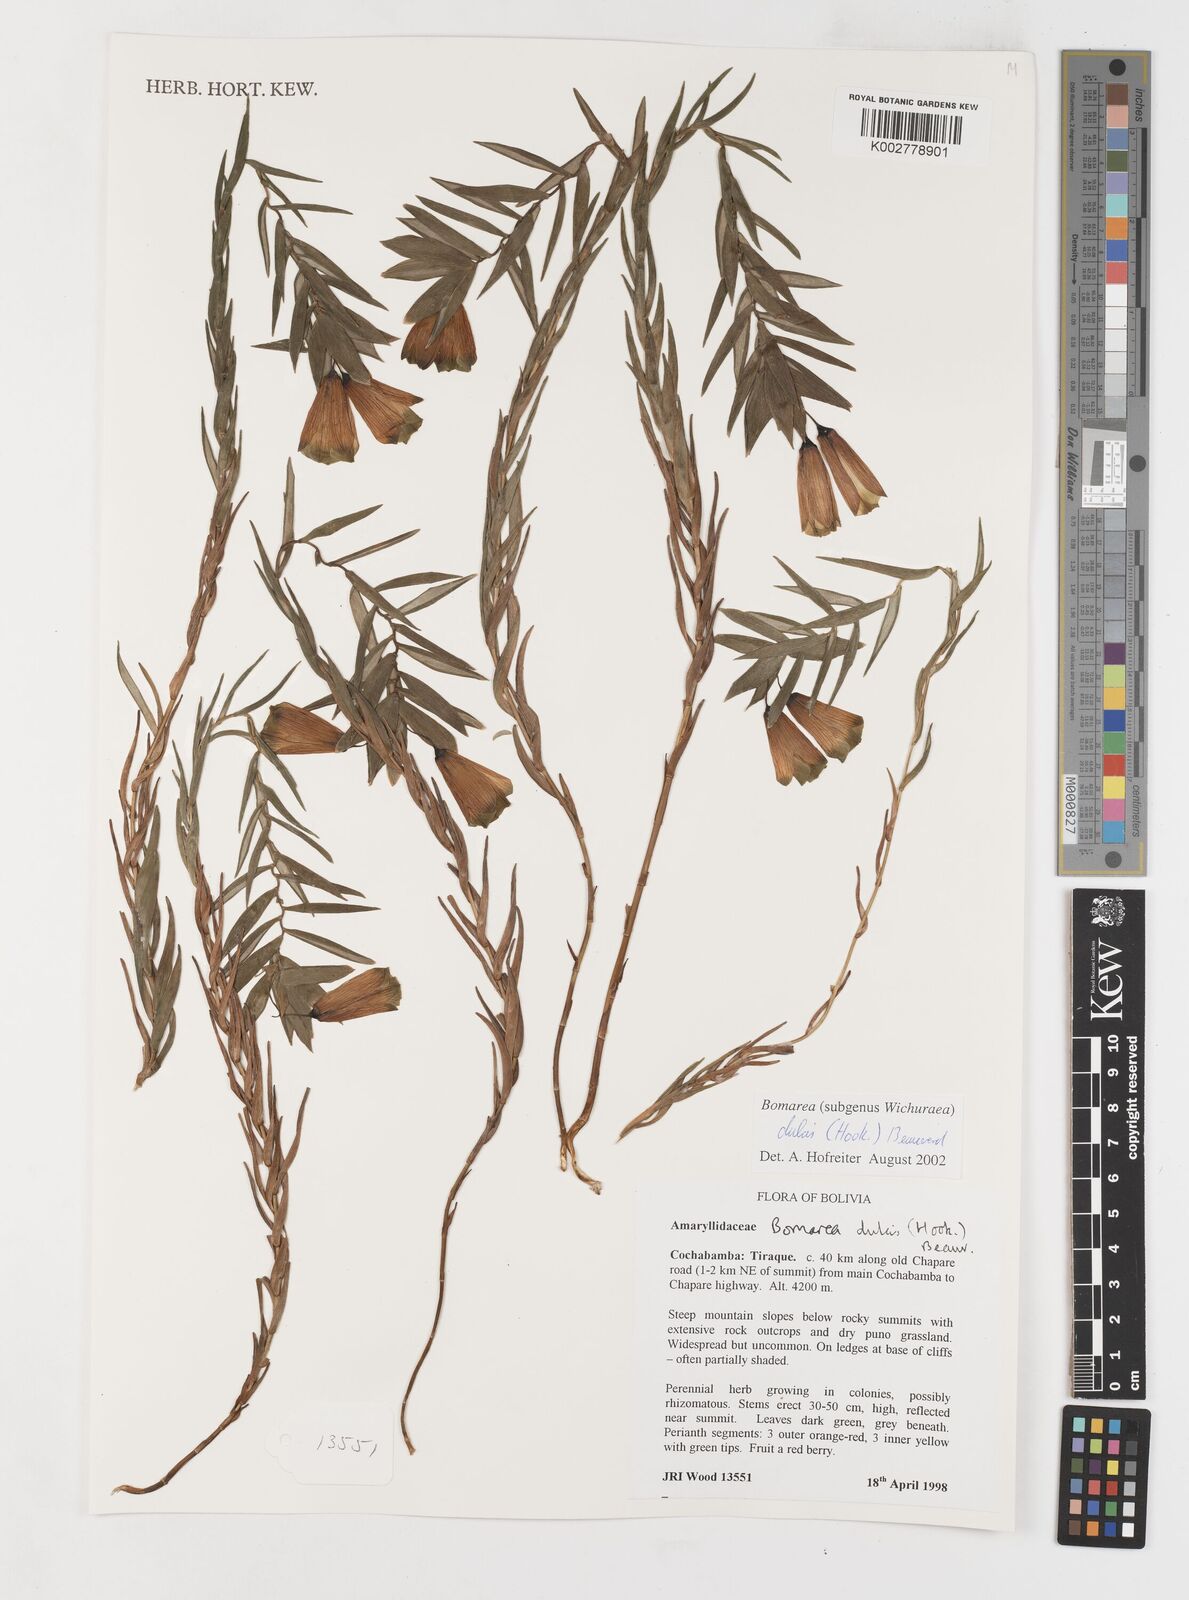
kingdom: Plantae
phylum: Tracheophyta
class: Liliopsida
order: Liliales
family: Alstroemeriaceae
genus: Bomarea
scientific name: Bomarea dulcis
